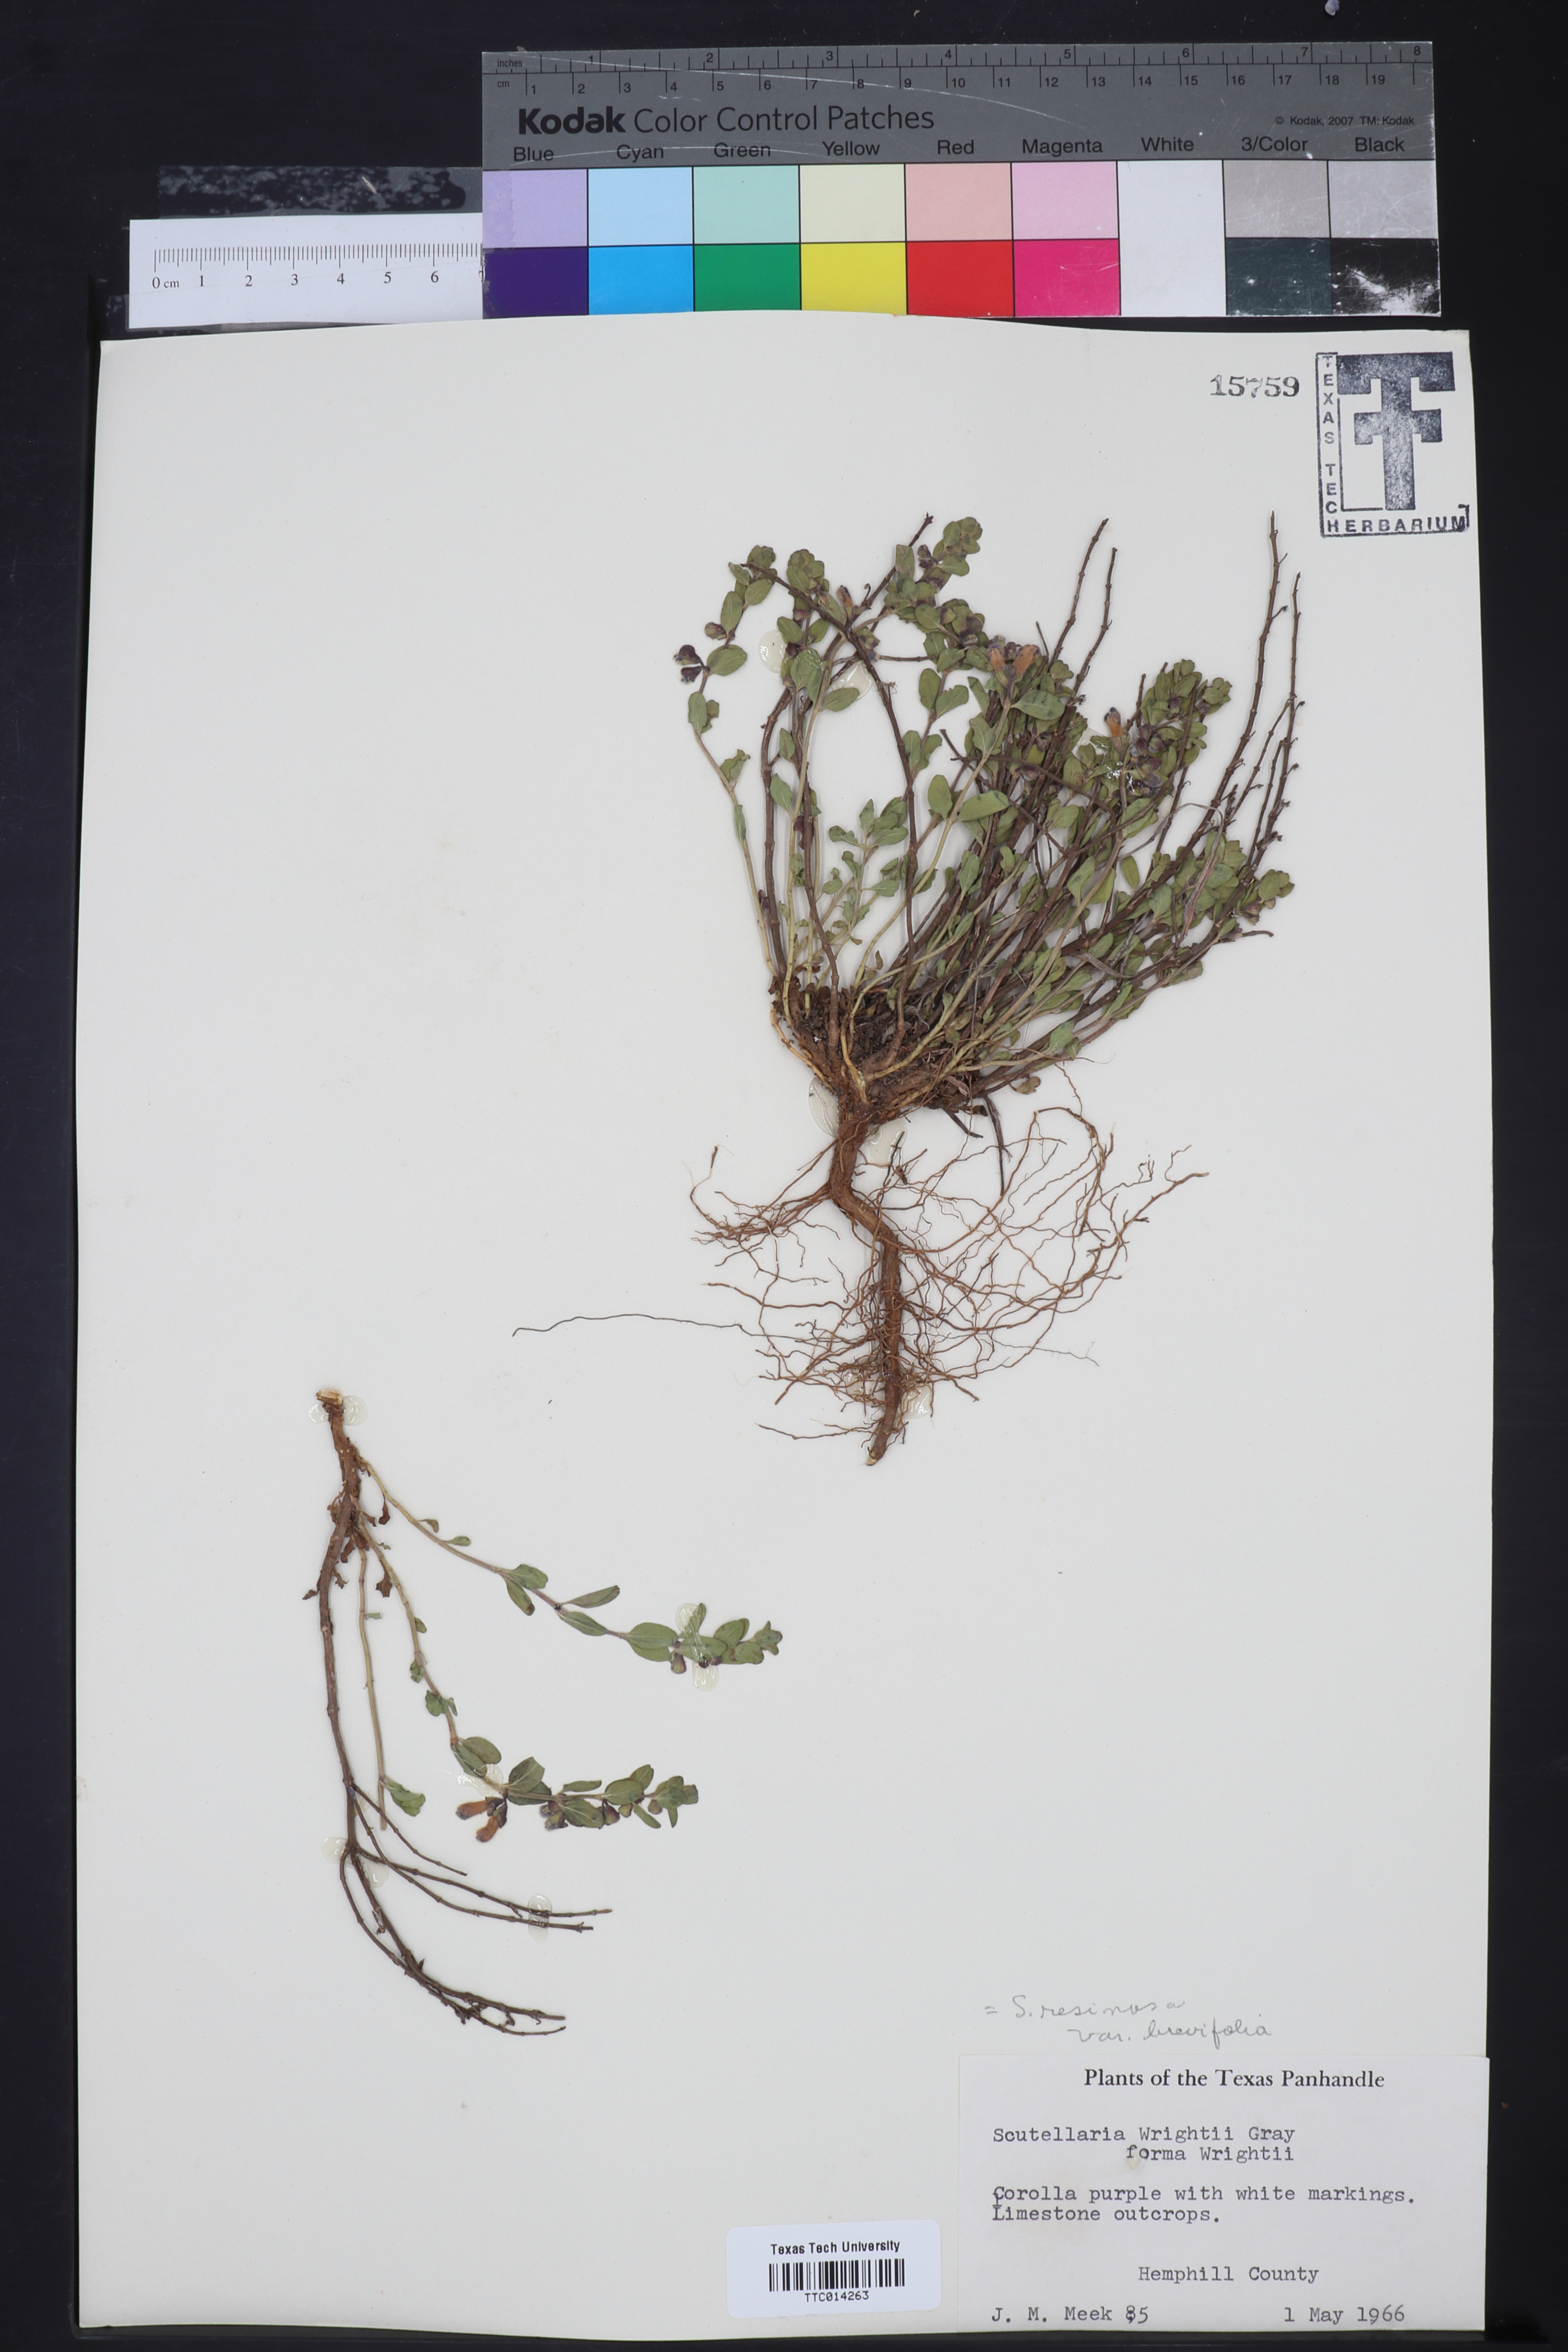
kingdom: Plantae
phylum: Tracheophyta
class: Magnoliopsida
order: Lamiales
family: Lamiaceae
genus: Scutellaria
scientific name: Scutellaria resinosa
